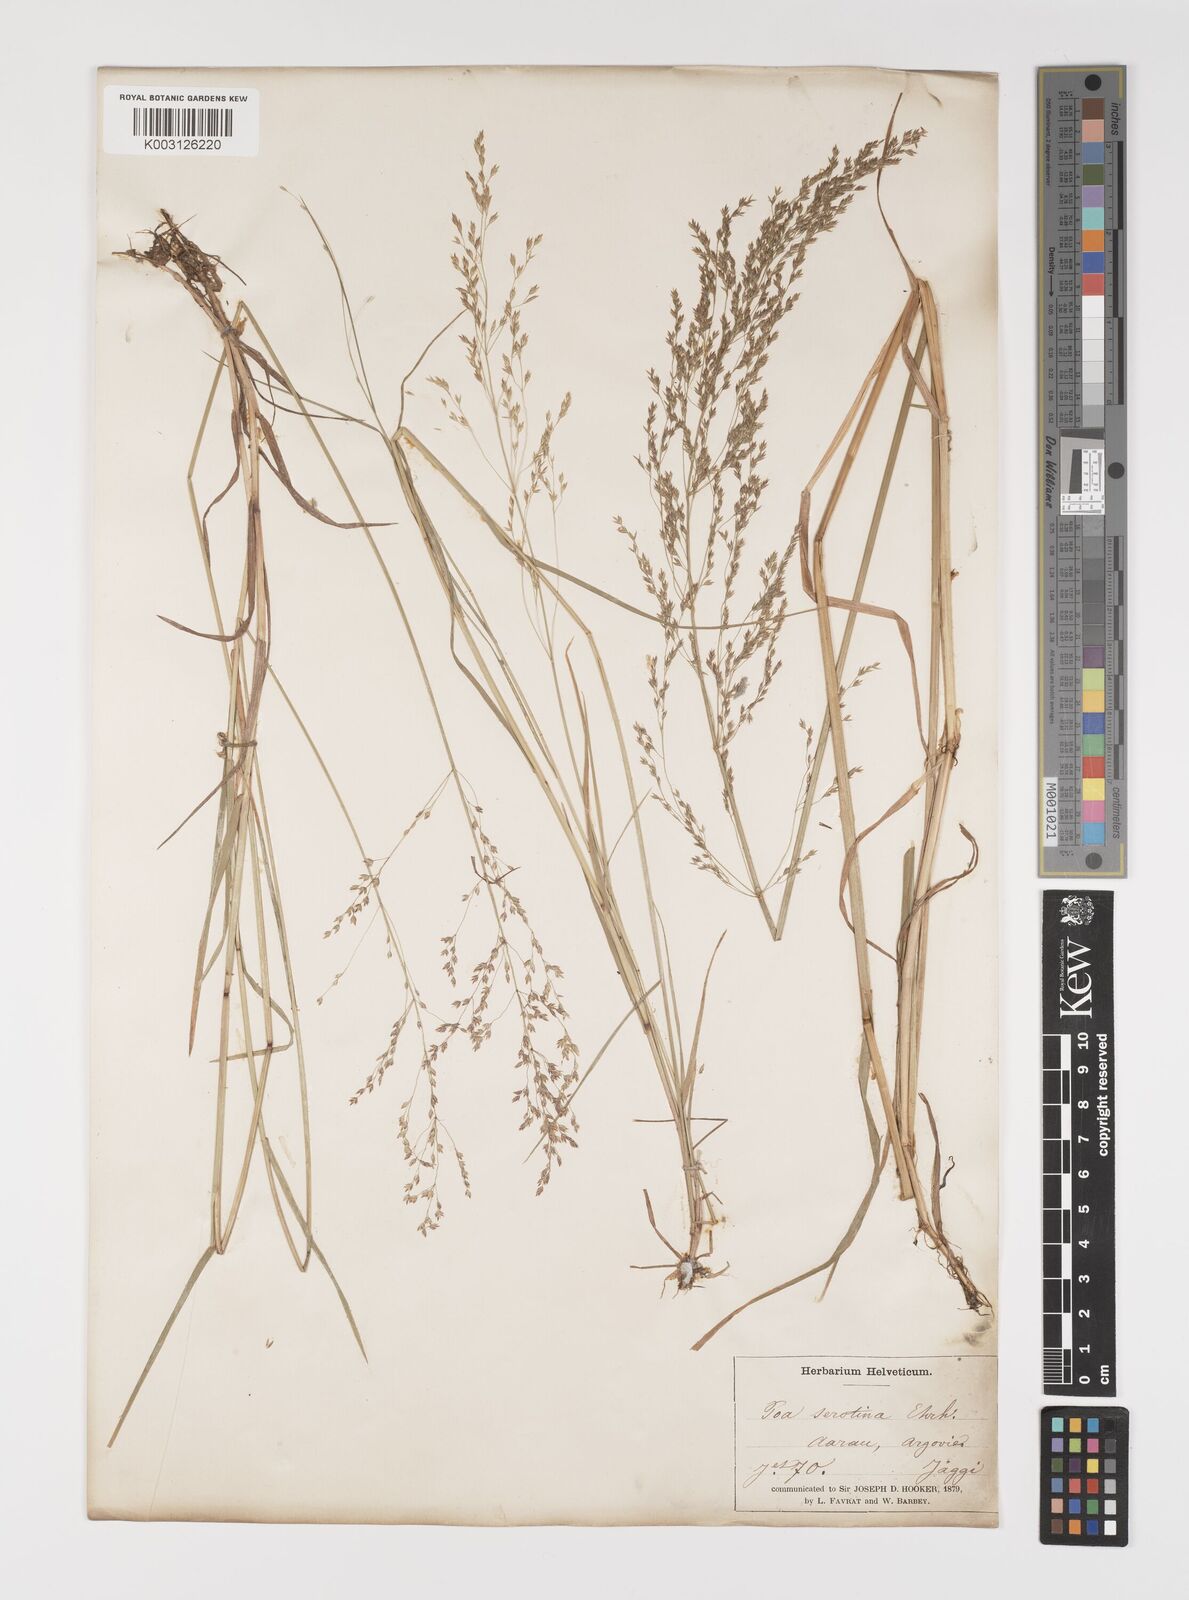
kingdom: Plantae
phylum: Tracheophyta
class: Liliopsida
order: Poales
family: Poaceae
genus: Poa
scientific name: Poa palustris
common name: Swamp meadow-grass
